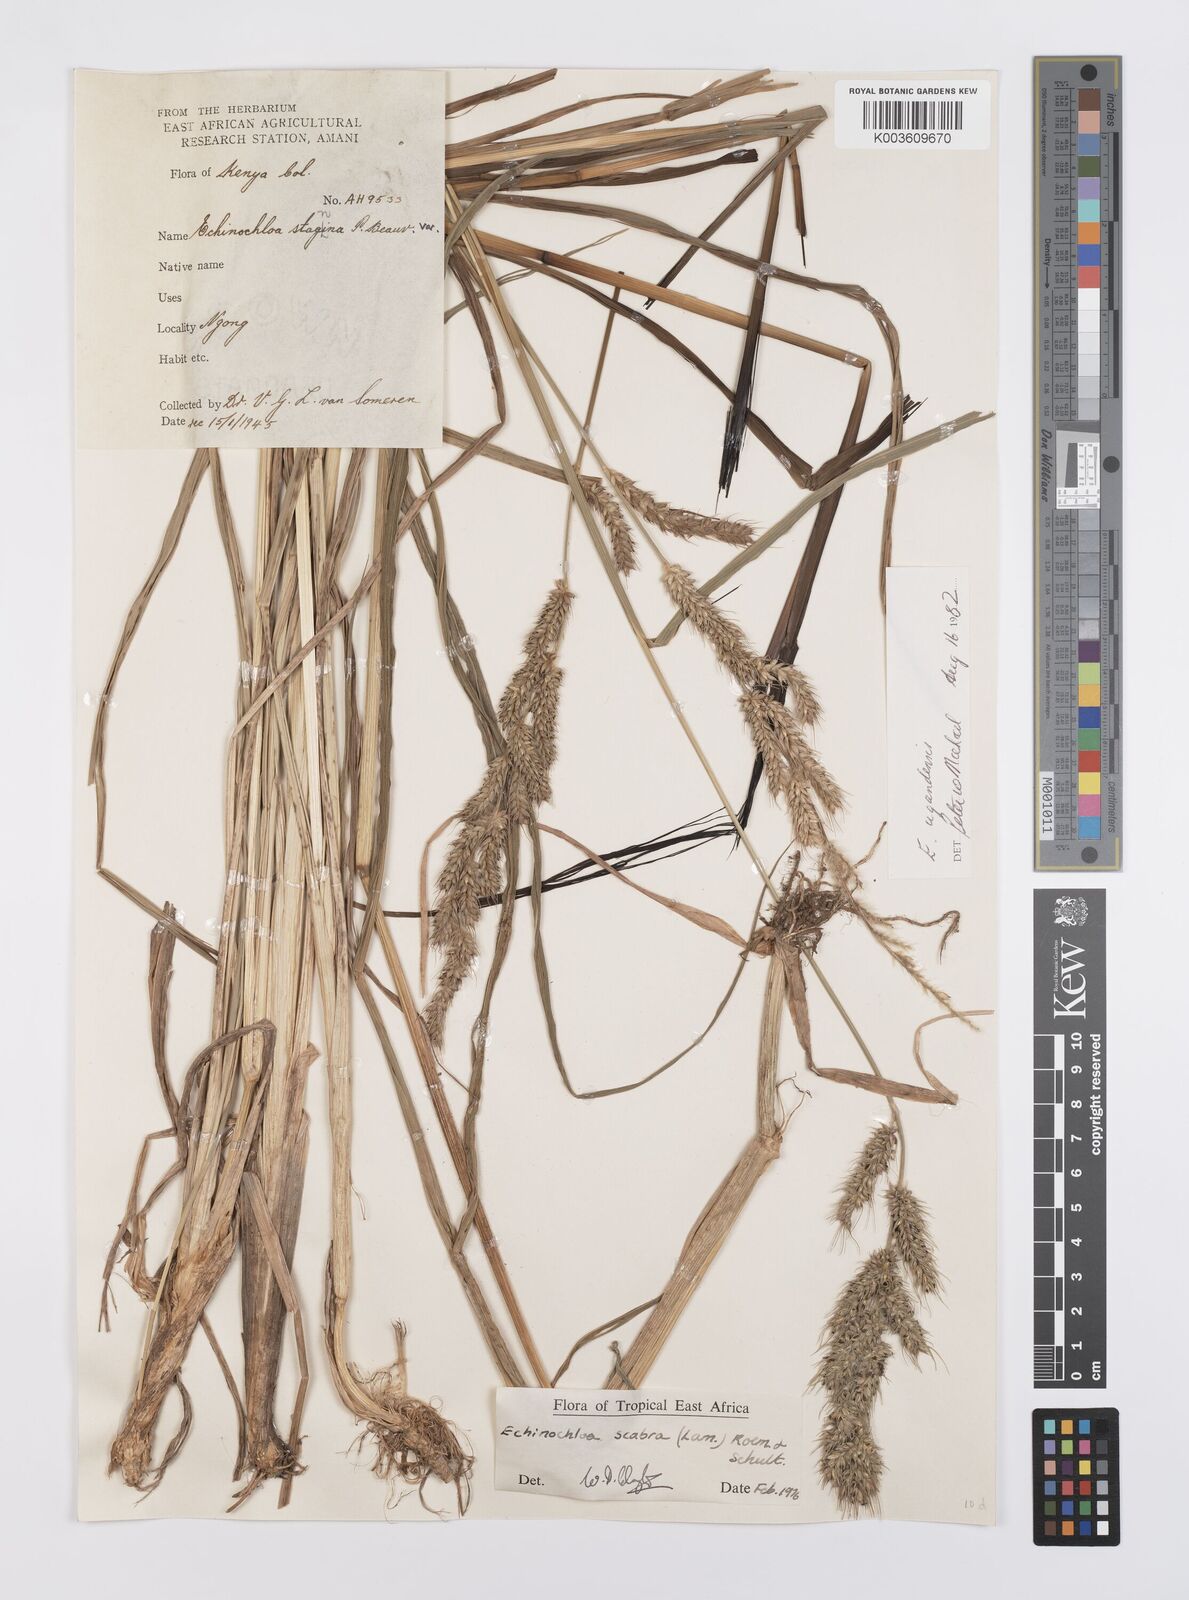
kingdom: Plantae
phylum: Tracheophyta
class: Liliopsida
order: Poales
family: Poaceae
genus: Echinochloa
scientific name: Echinochloa stagnina
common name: Burgu grass
